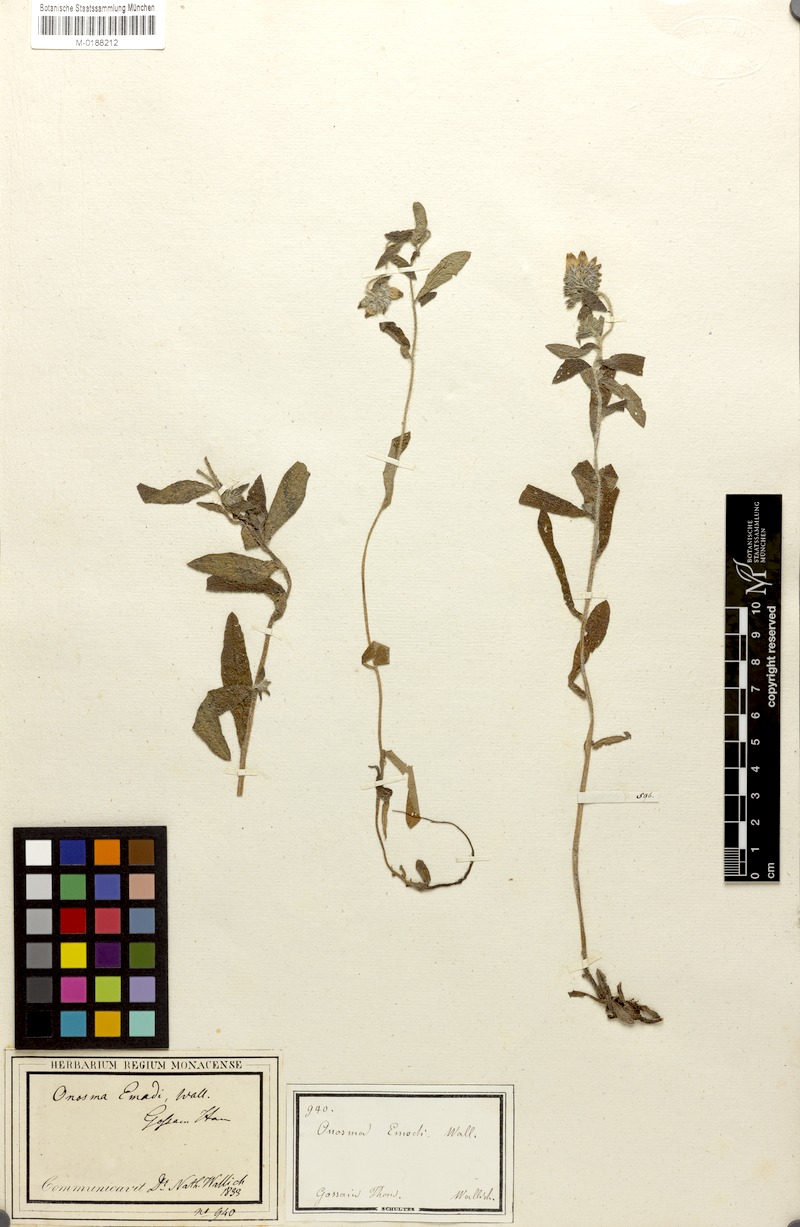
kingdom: Plantae
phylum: Tracheophyta
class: Magnoliopsida
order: Boraginales
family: Boraginaceae
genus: Maharanga
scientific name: Maharanga wallichiana
